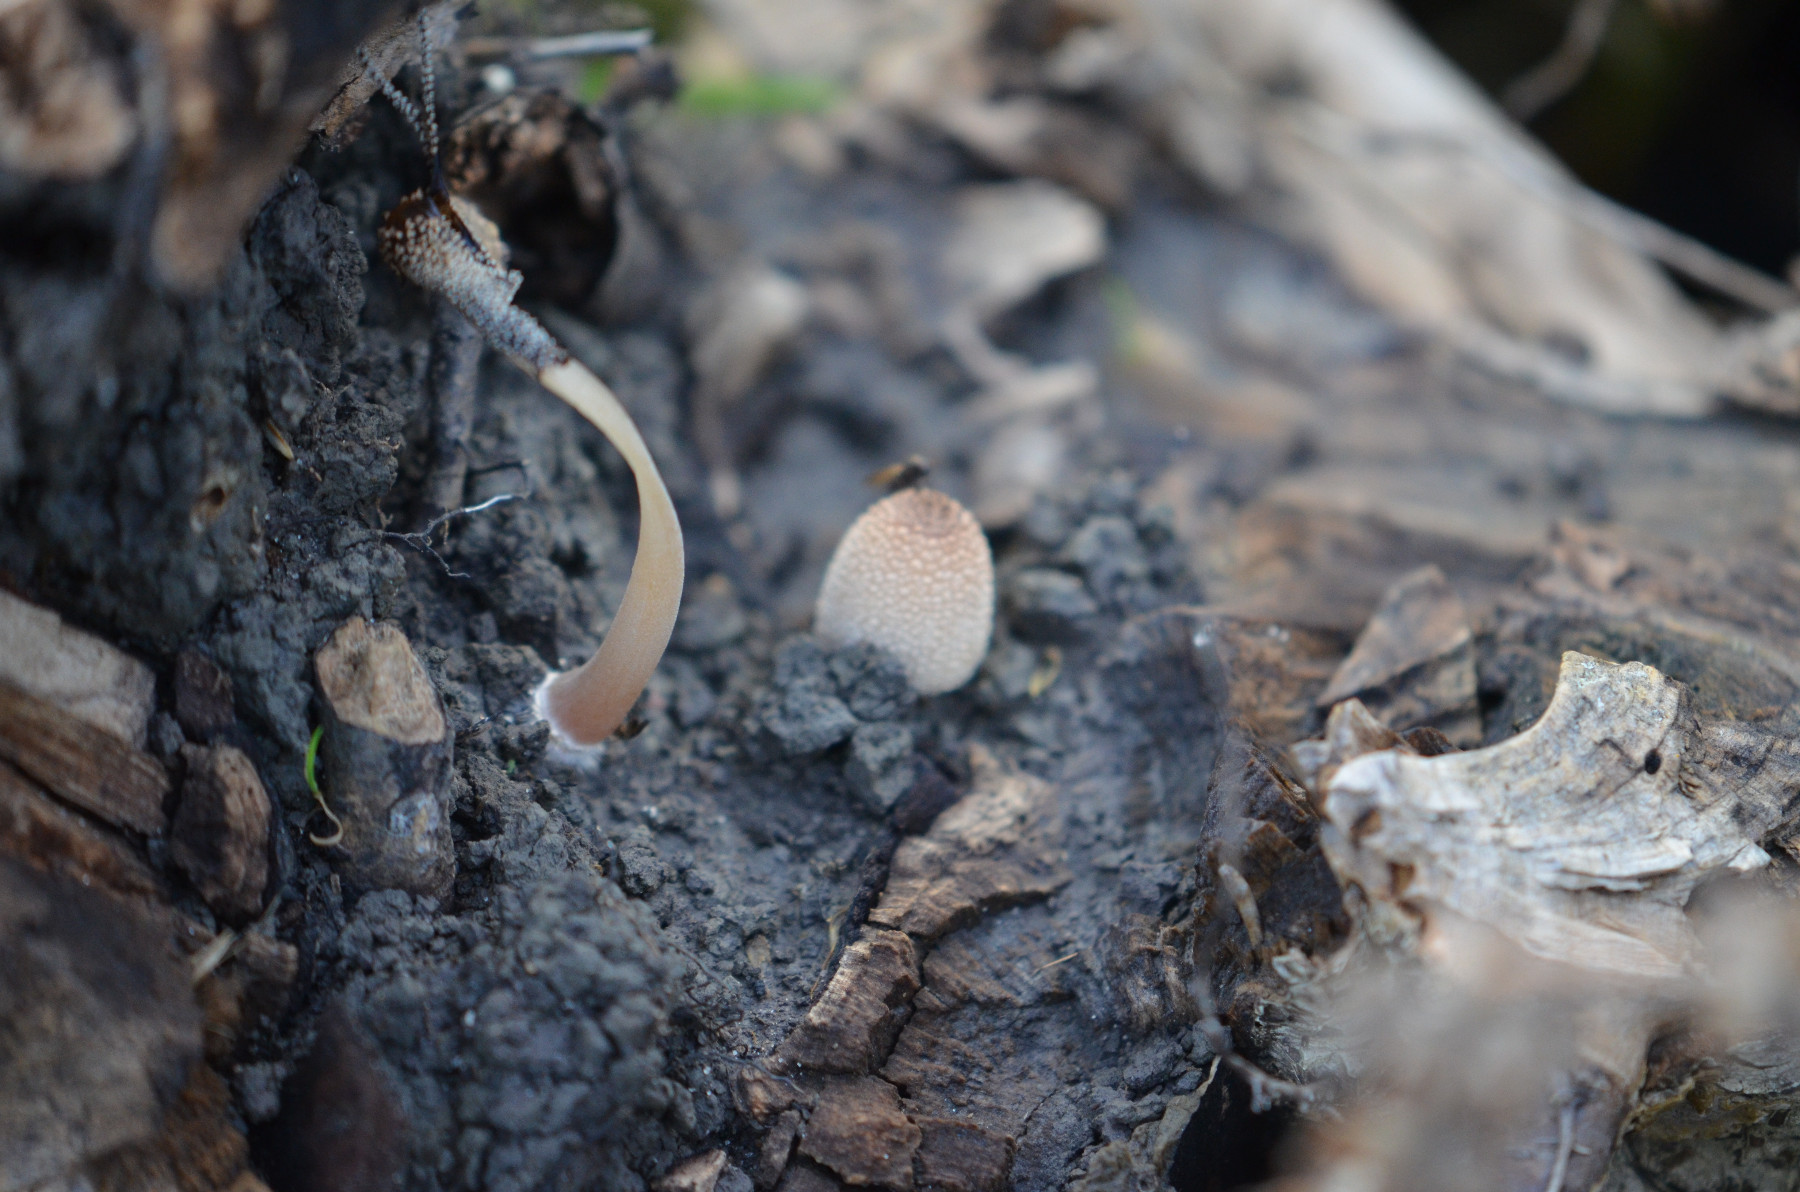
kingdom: Fungi
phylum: Basidiomycota
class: Agaricomycetes
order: Agaricales
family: Psathyrellaceae
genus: Coprinellus
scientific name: Coprinellus
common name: blækhat
